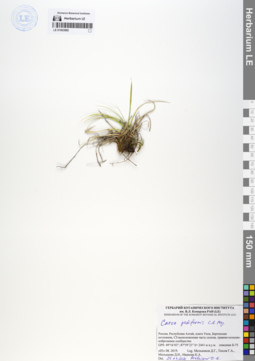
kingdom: Plantae
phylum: Tracheophyta
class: Liliopsida
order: Poales
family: Cyperaceae
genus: Carex
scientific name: Carex pediformis
